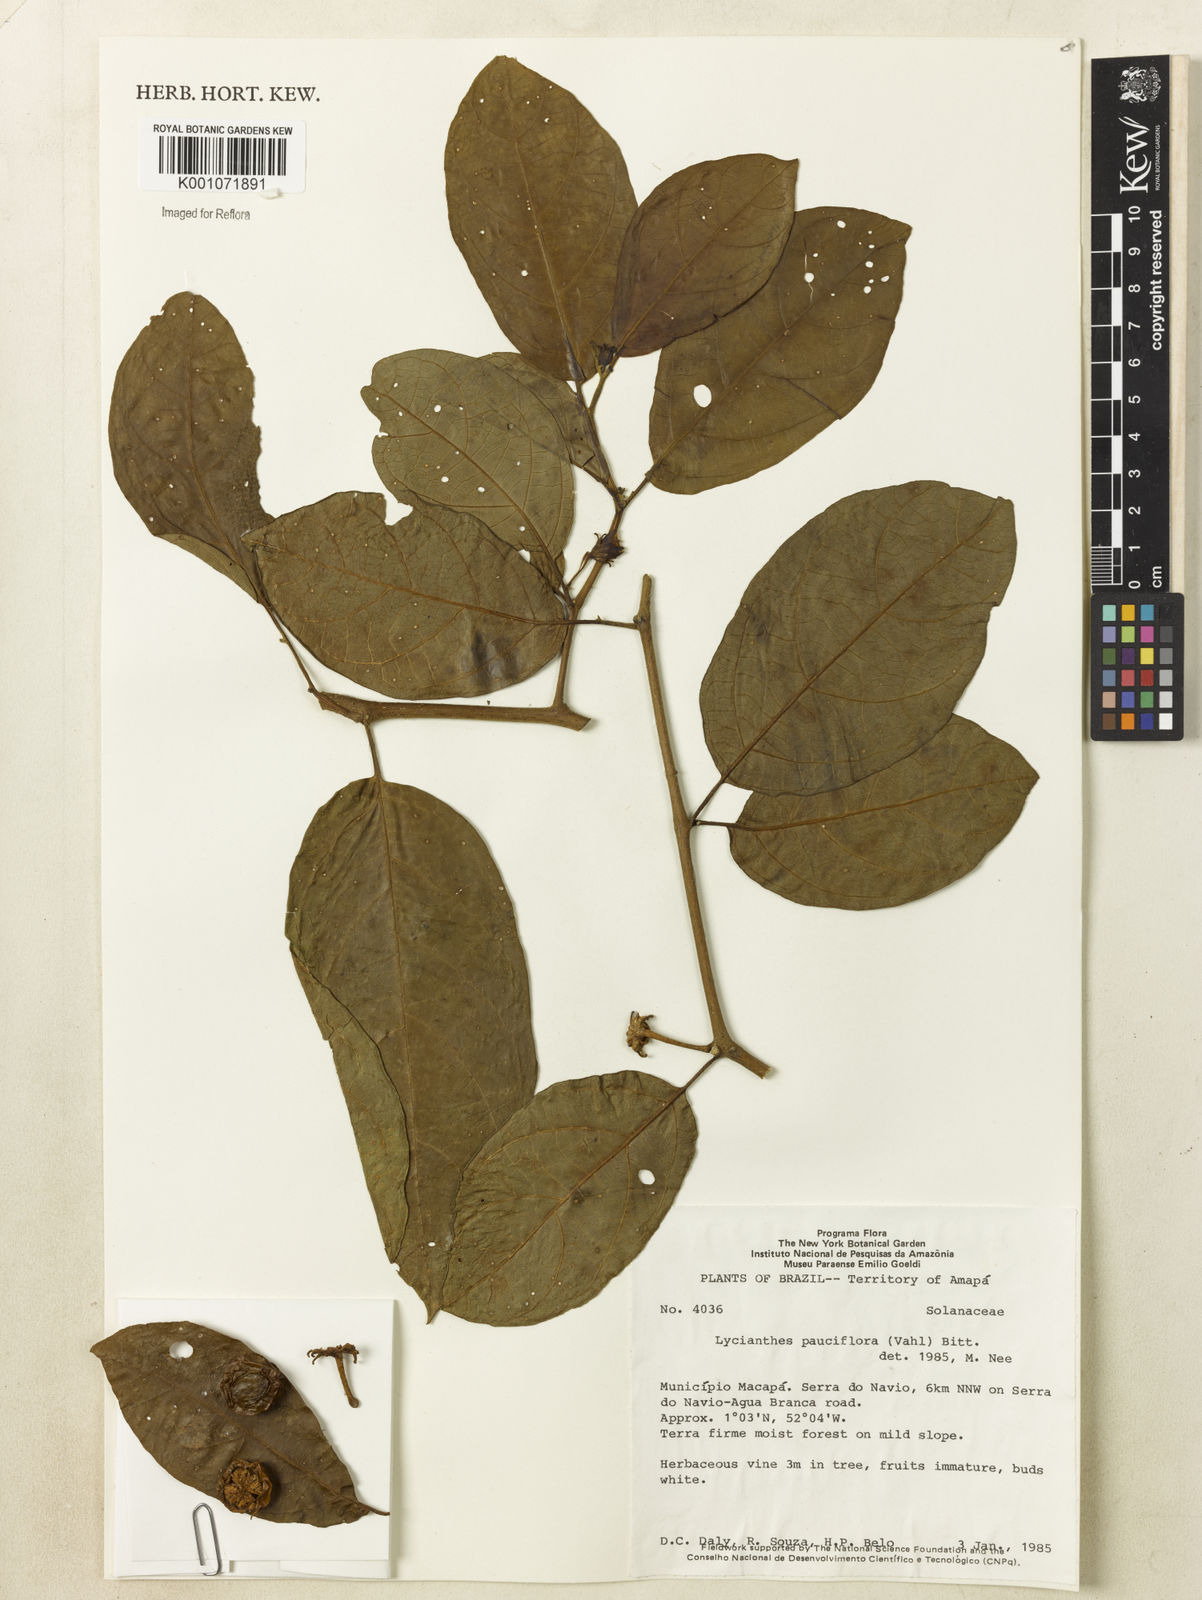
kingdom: Plantae
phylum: Tracheophyta
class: Magnoliopsida
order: Solanales
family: Solanaceae
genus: Lycianthes
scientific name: Lycianthes pauciflora
